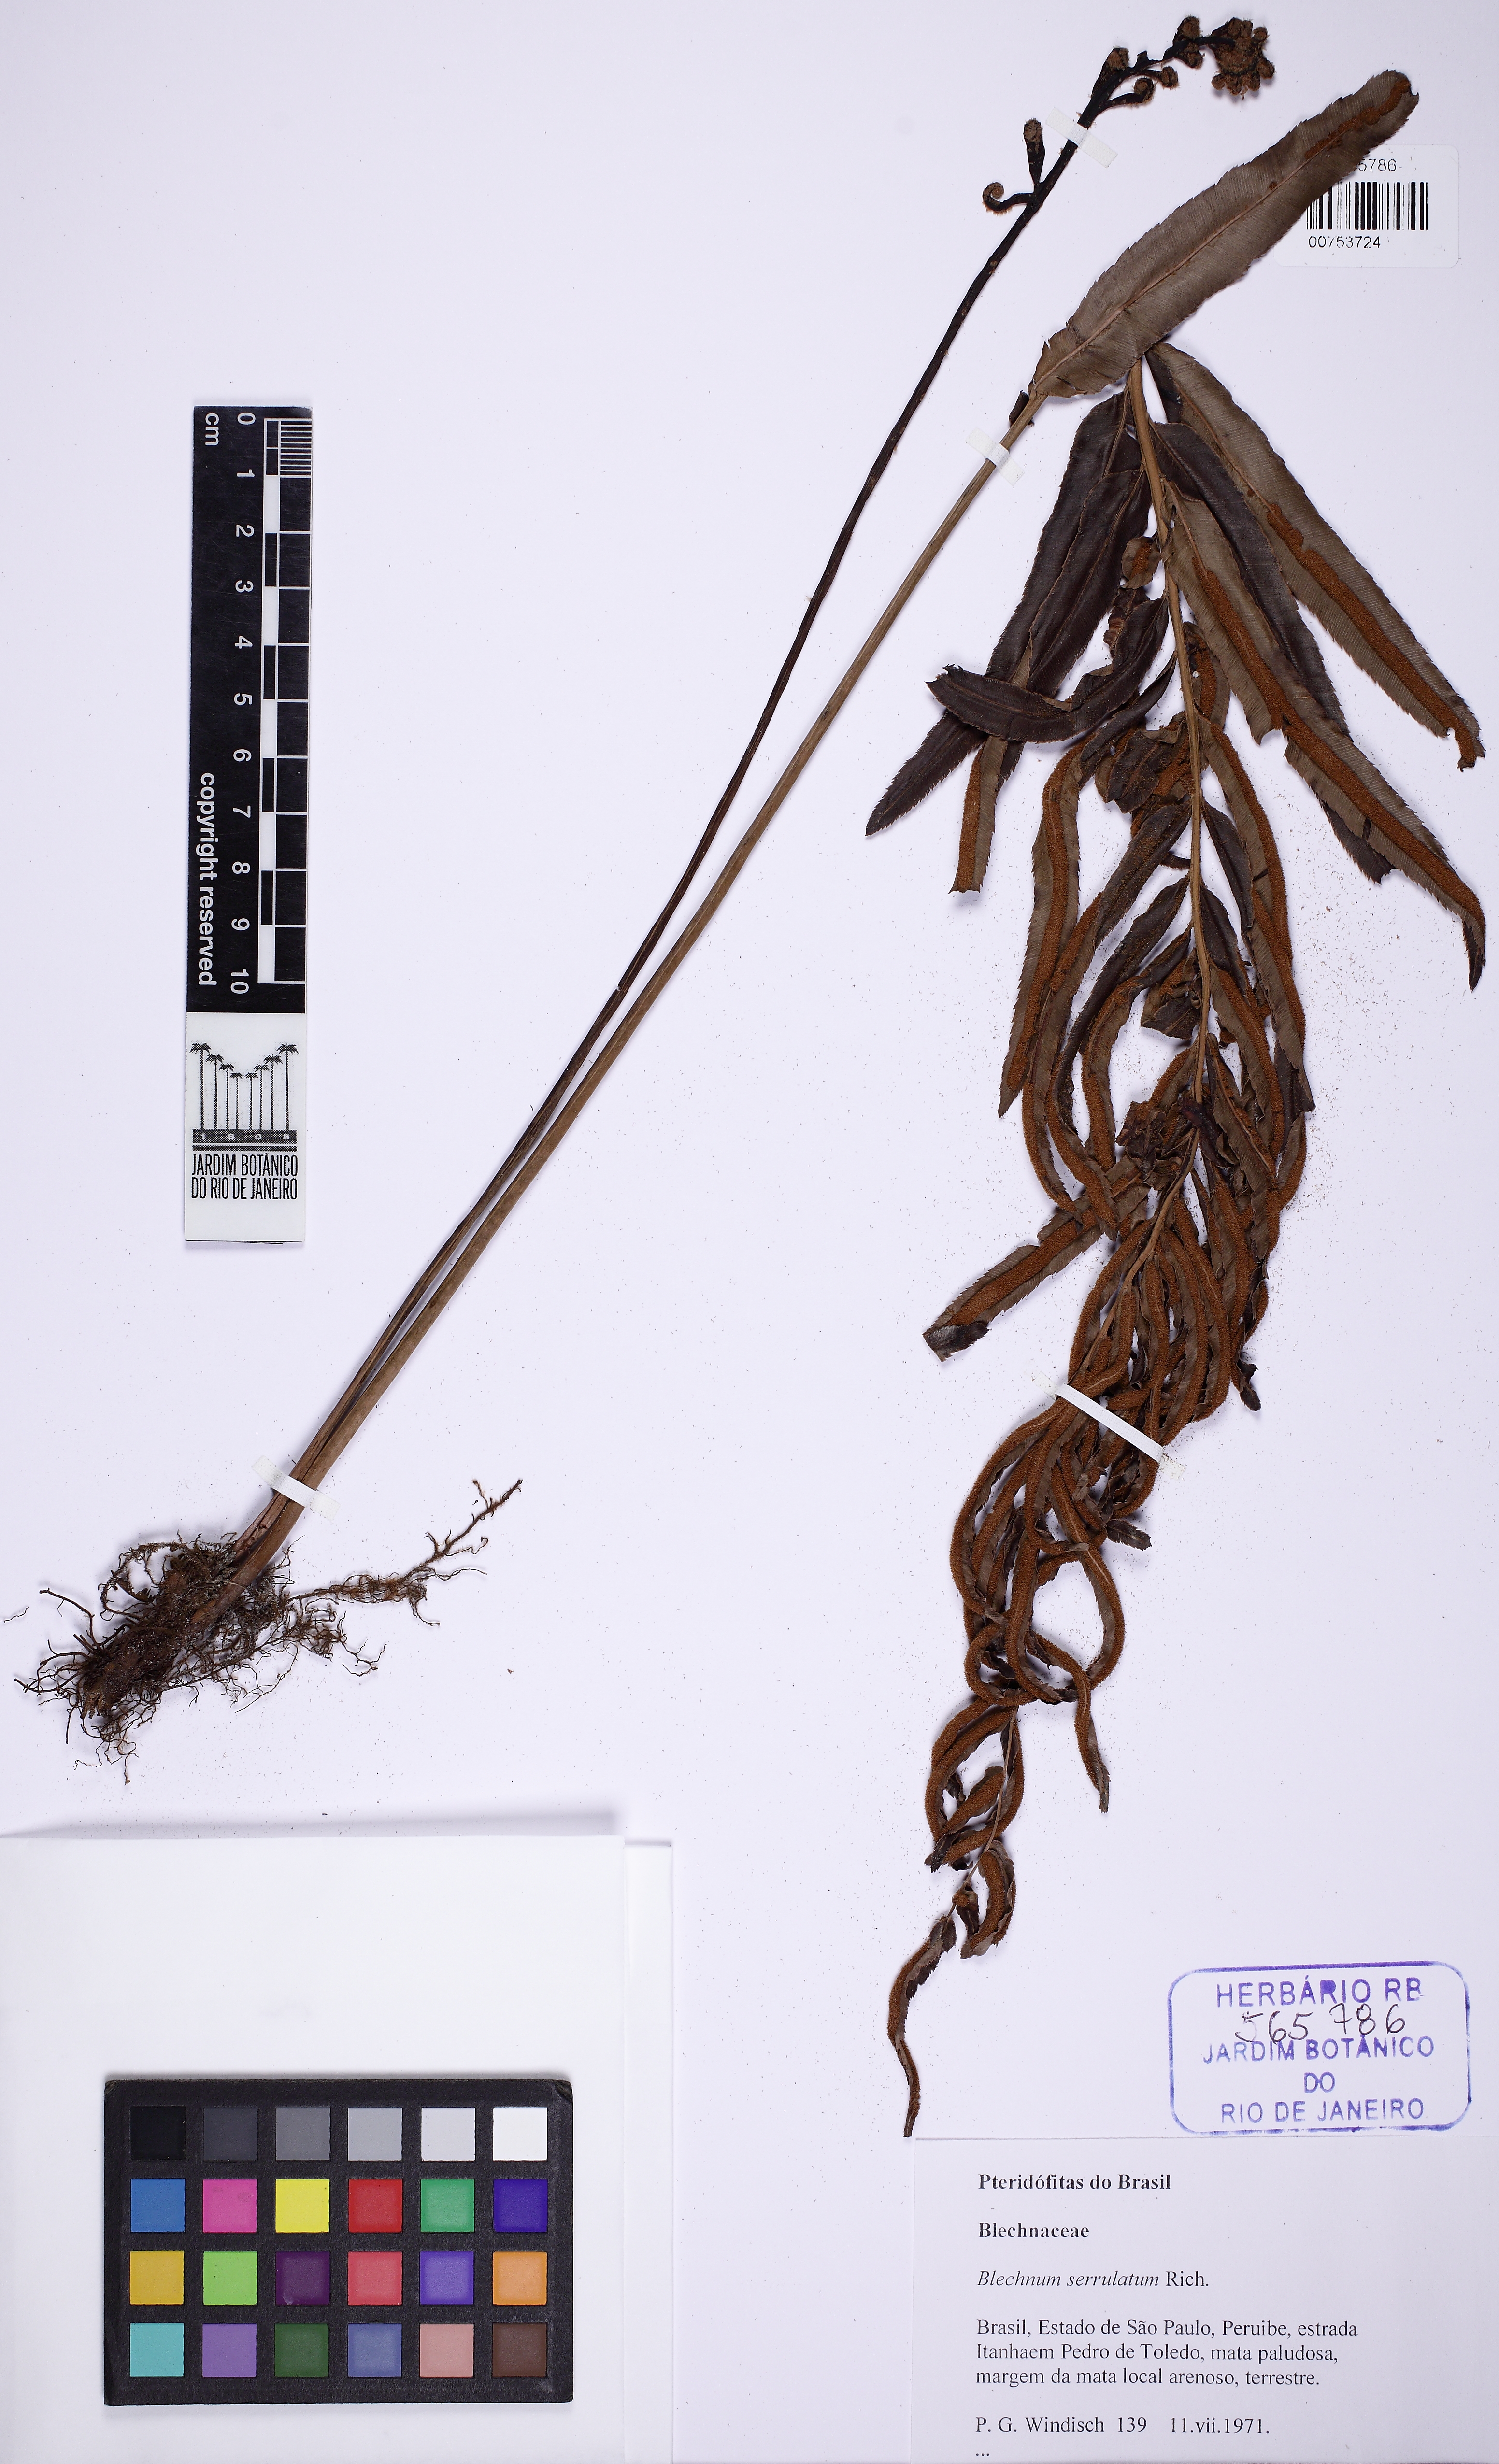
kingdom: Plantae
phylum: Tracheophyta
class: Polypodiopsida
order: Polypodiales
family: Blechnaceae
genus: Telmatoblechnum
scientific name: Telmatoblechnum serrulatum
